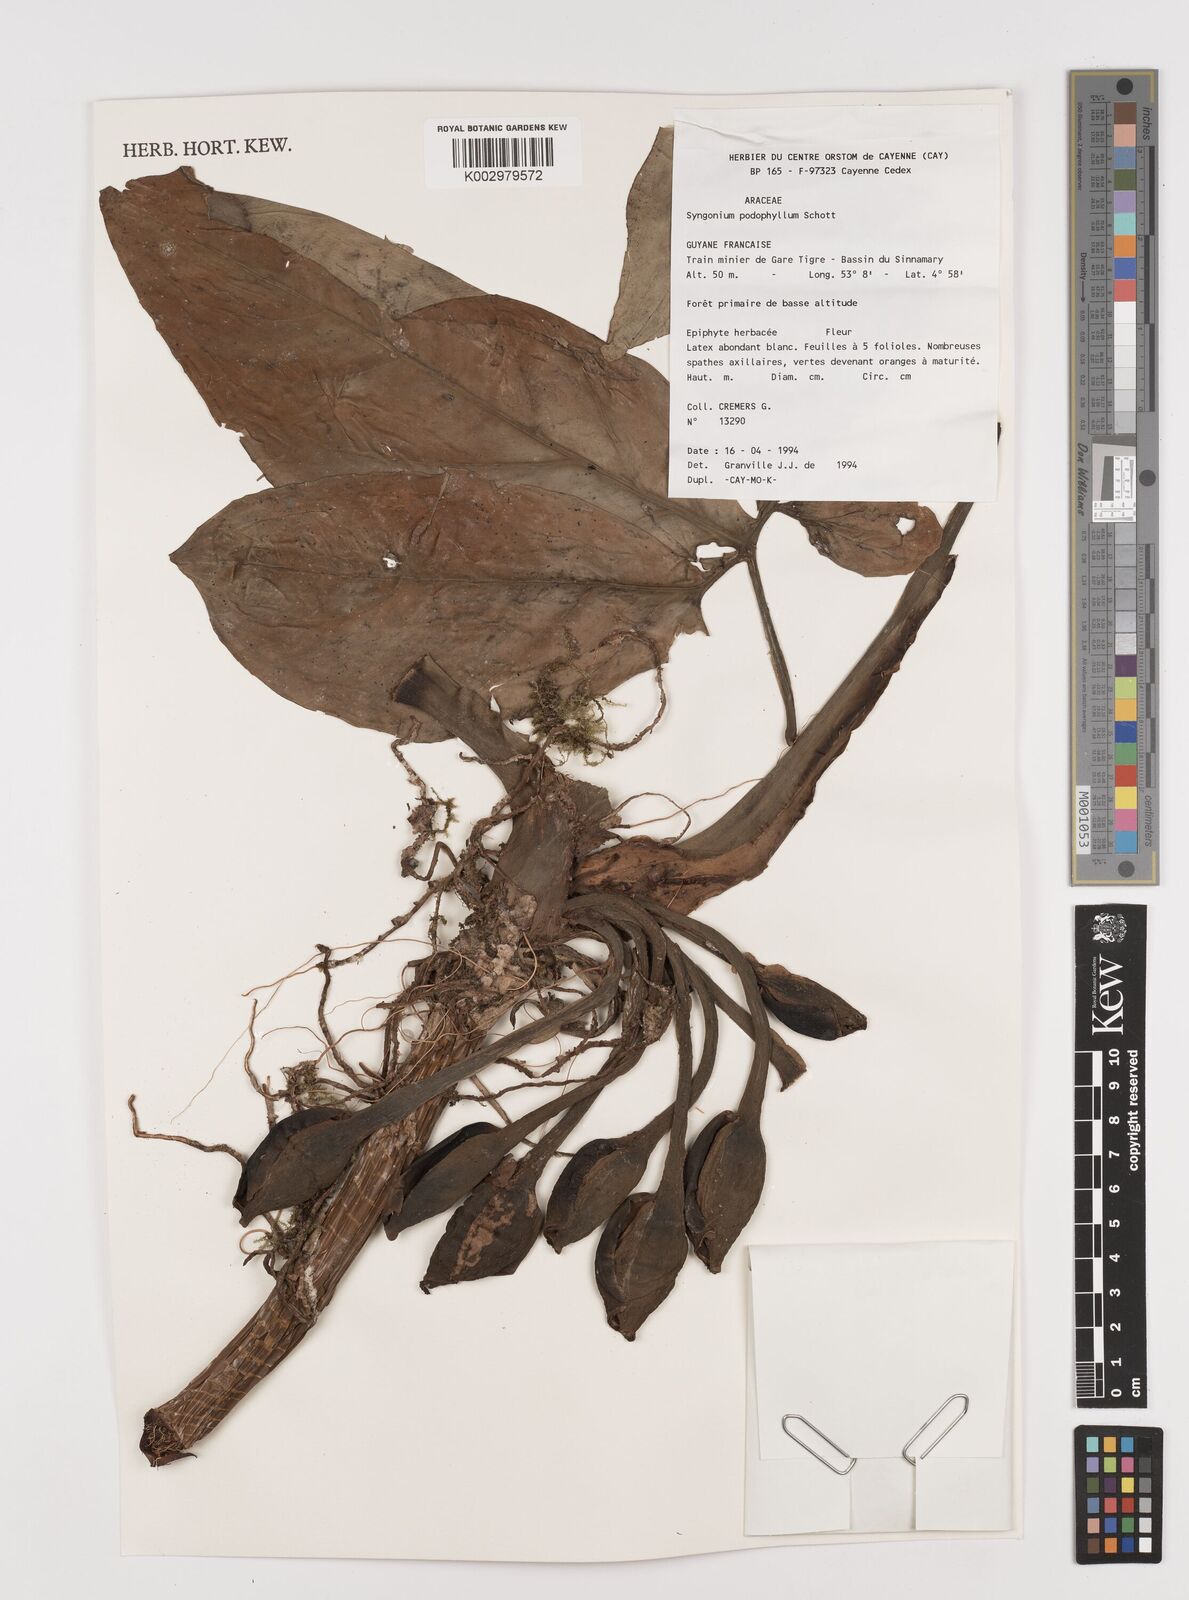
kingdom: Plantae
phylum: Tracheophyta
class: Liliopsida
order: Alismatales
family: Araceae
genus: Syngonium
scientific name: Syngonium podophyllum
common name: American evergreen
